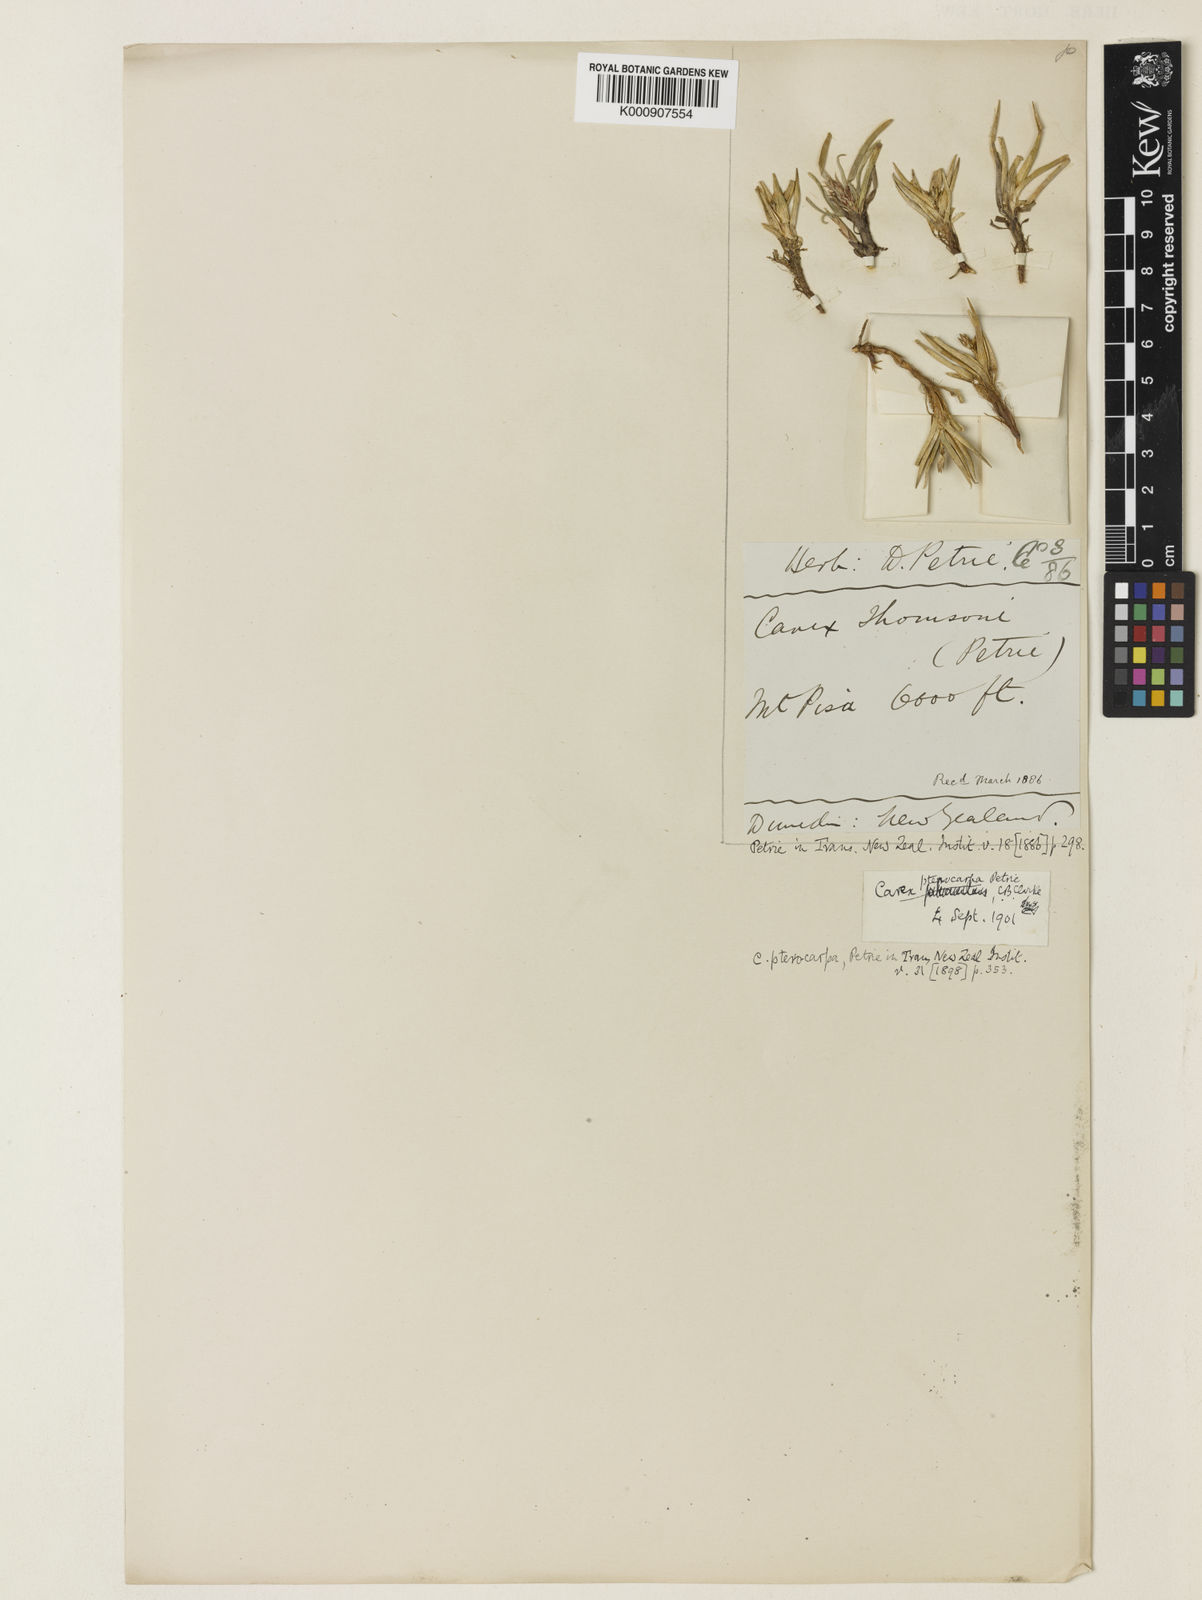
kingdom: Plantae
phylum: Tracheophyta
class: Liliopsida
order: Poales
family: Cyperaceae
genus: Carex
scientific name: Carex pterocarpa
